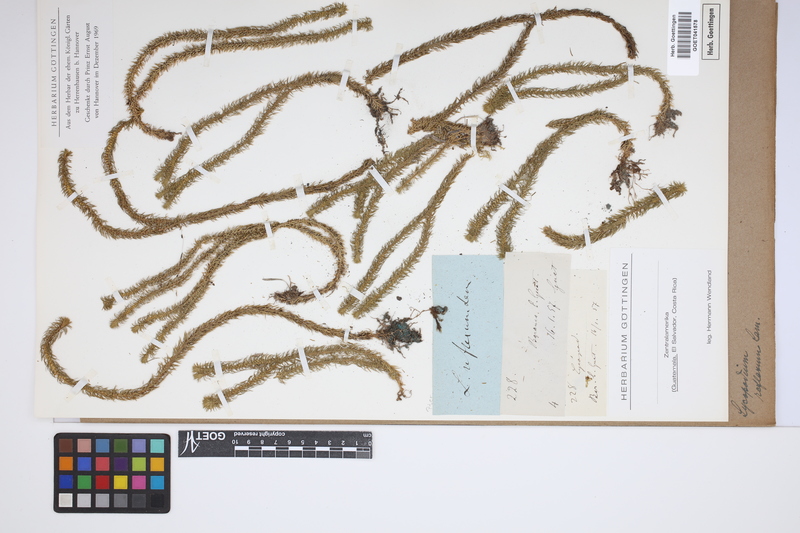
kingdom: Plantae
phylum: Tracheophyta
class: Lycopodiopsida
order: Lycopodiales
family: Lycopodiaceae
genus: Huperzia
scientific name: Huperzia lucidula
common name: Shining clubmoss
